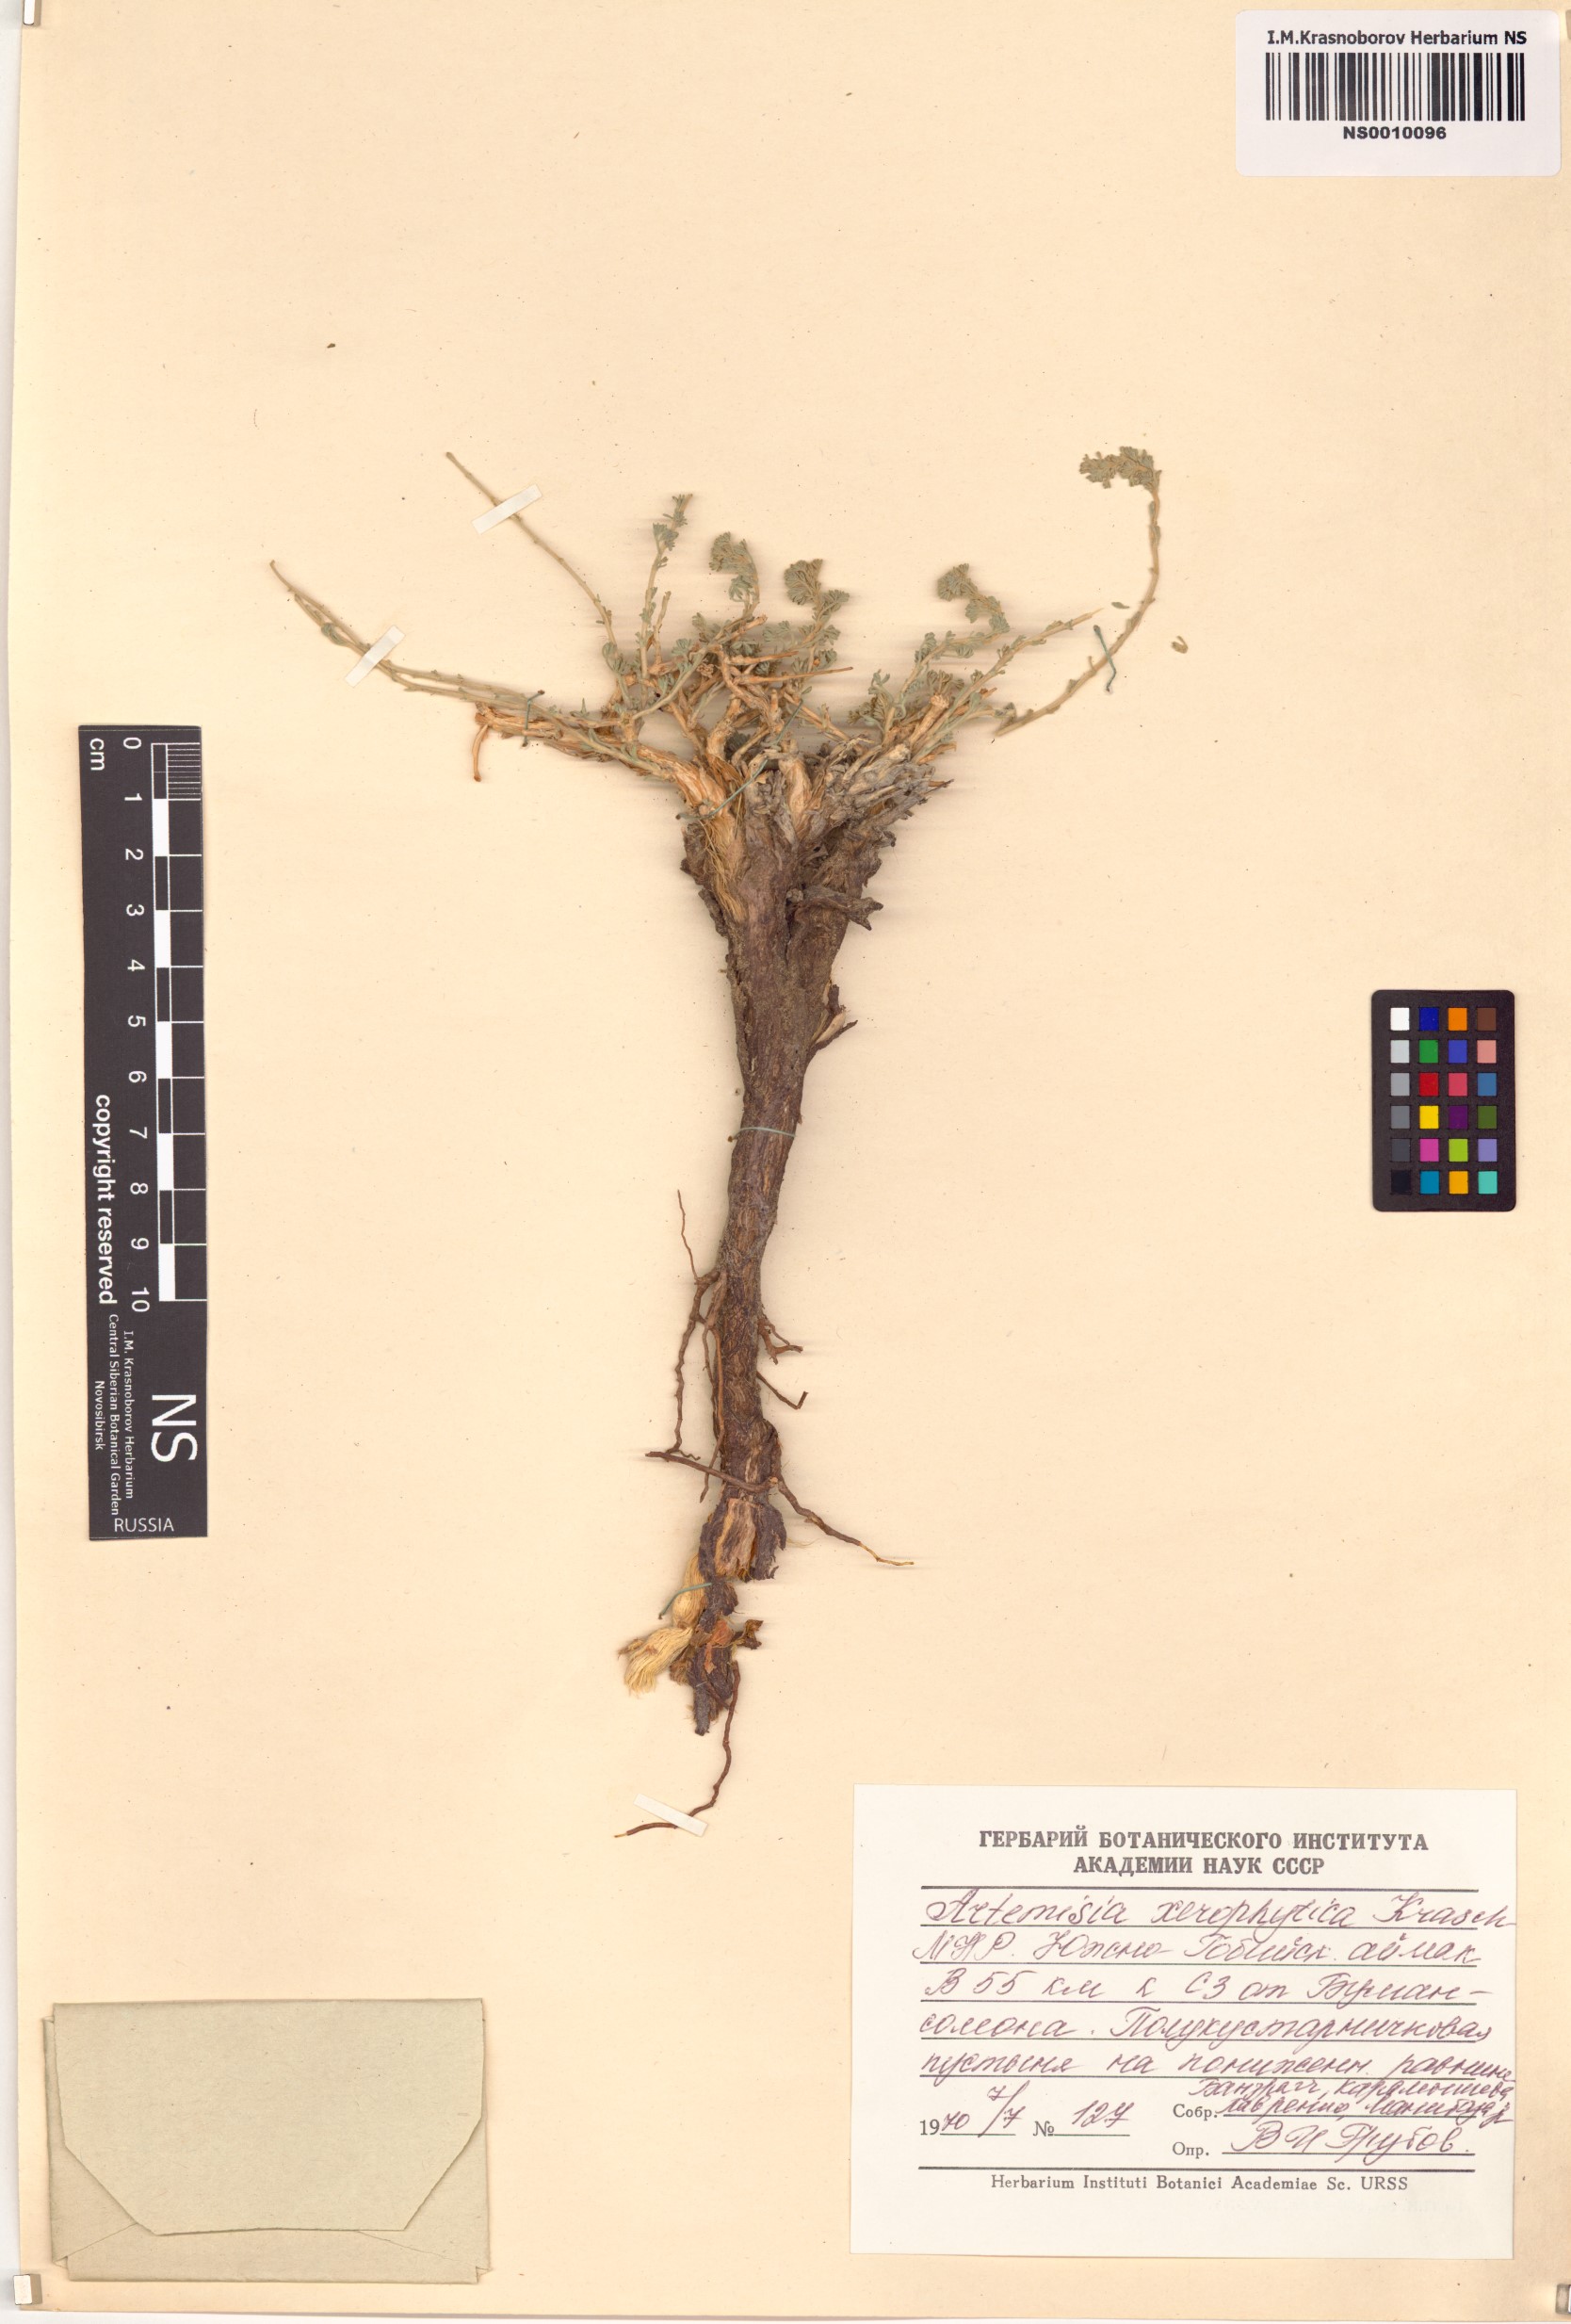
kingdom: Plantae
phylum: Tracheophyta
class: Magnoliopsida
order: Asterales
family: Asteraceae
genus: Artemisia
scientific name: Artemisia xerophytica
